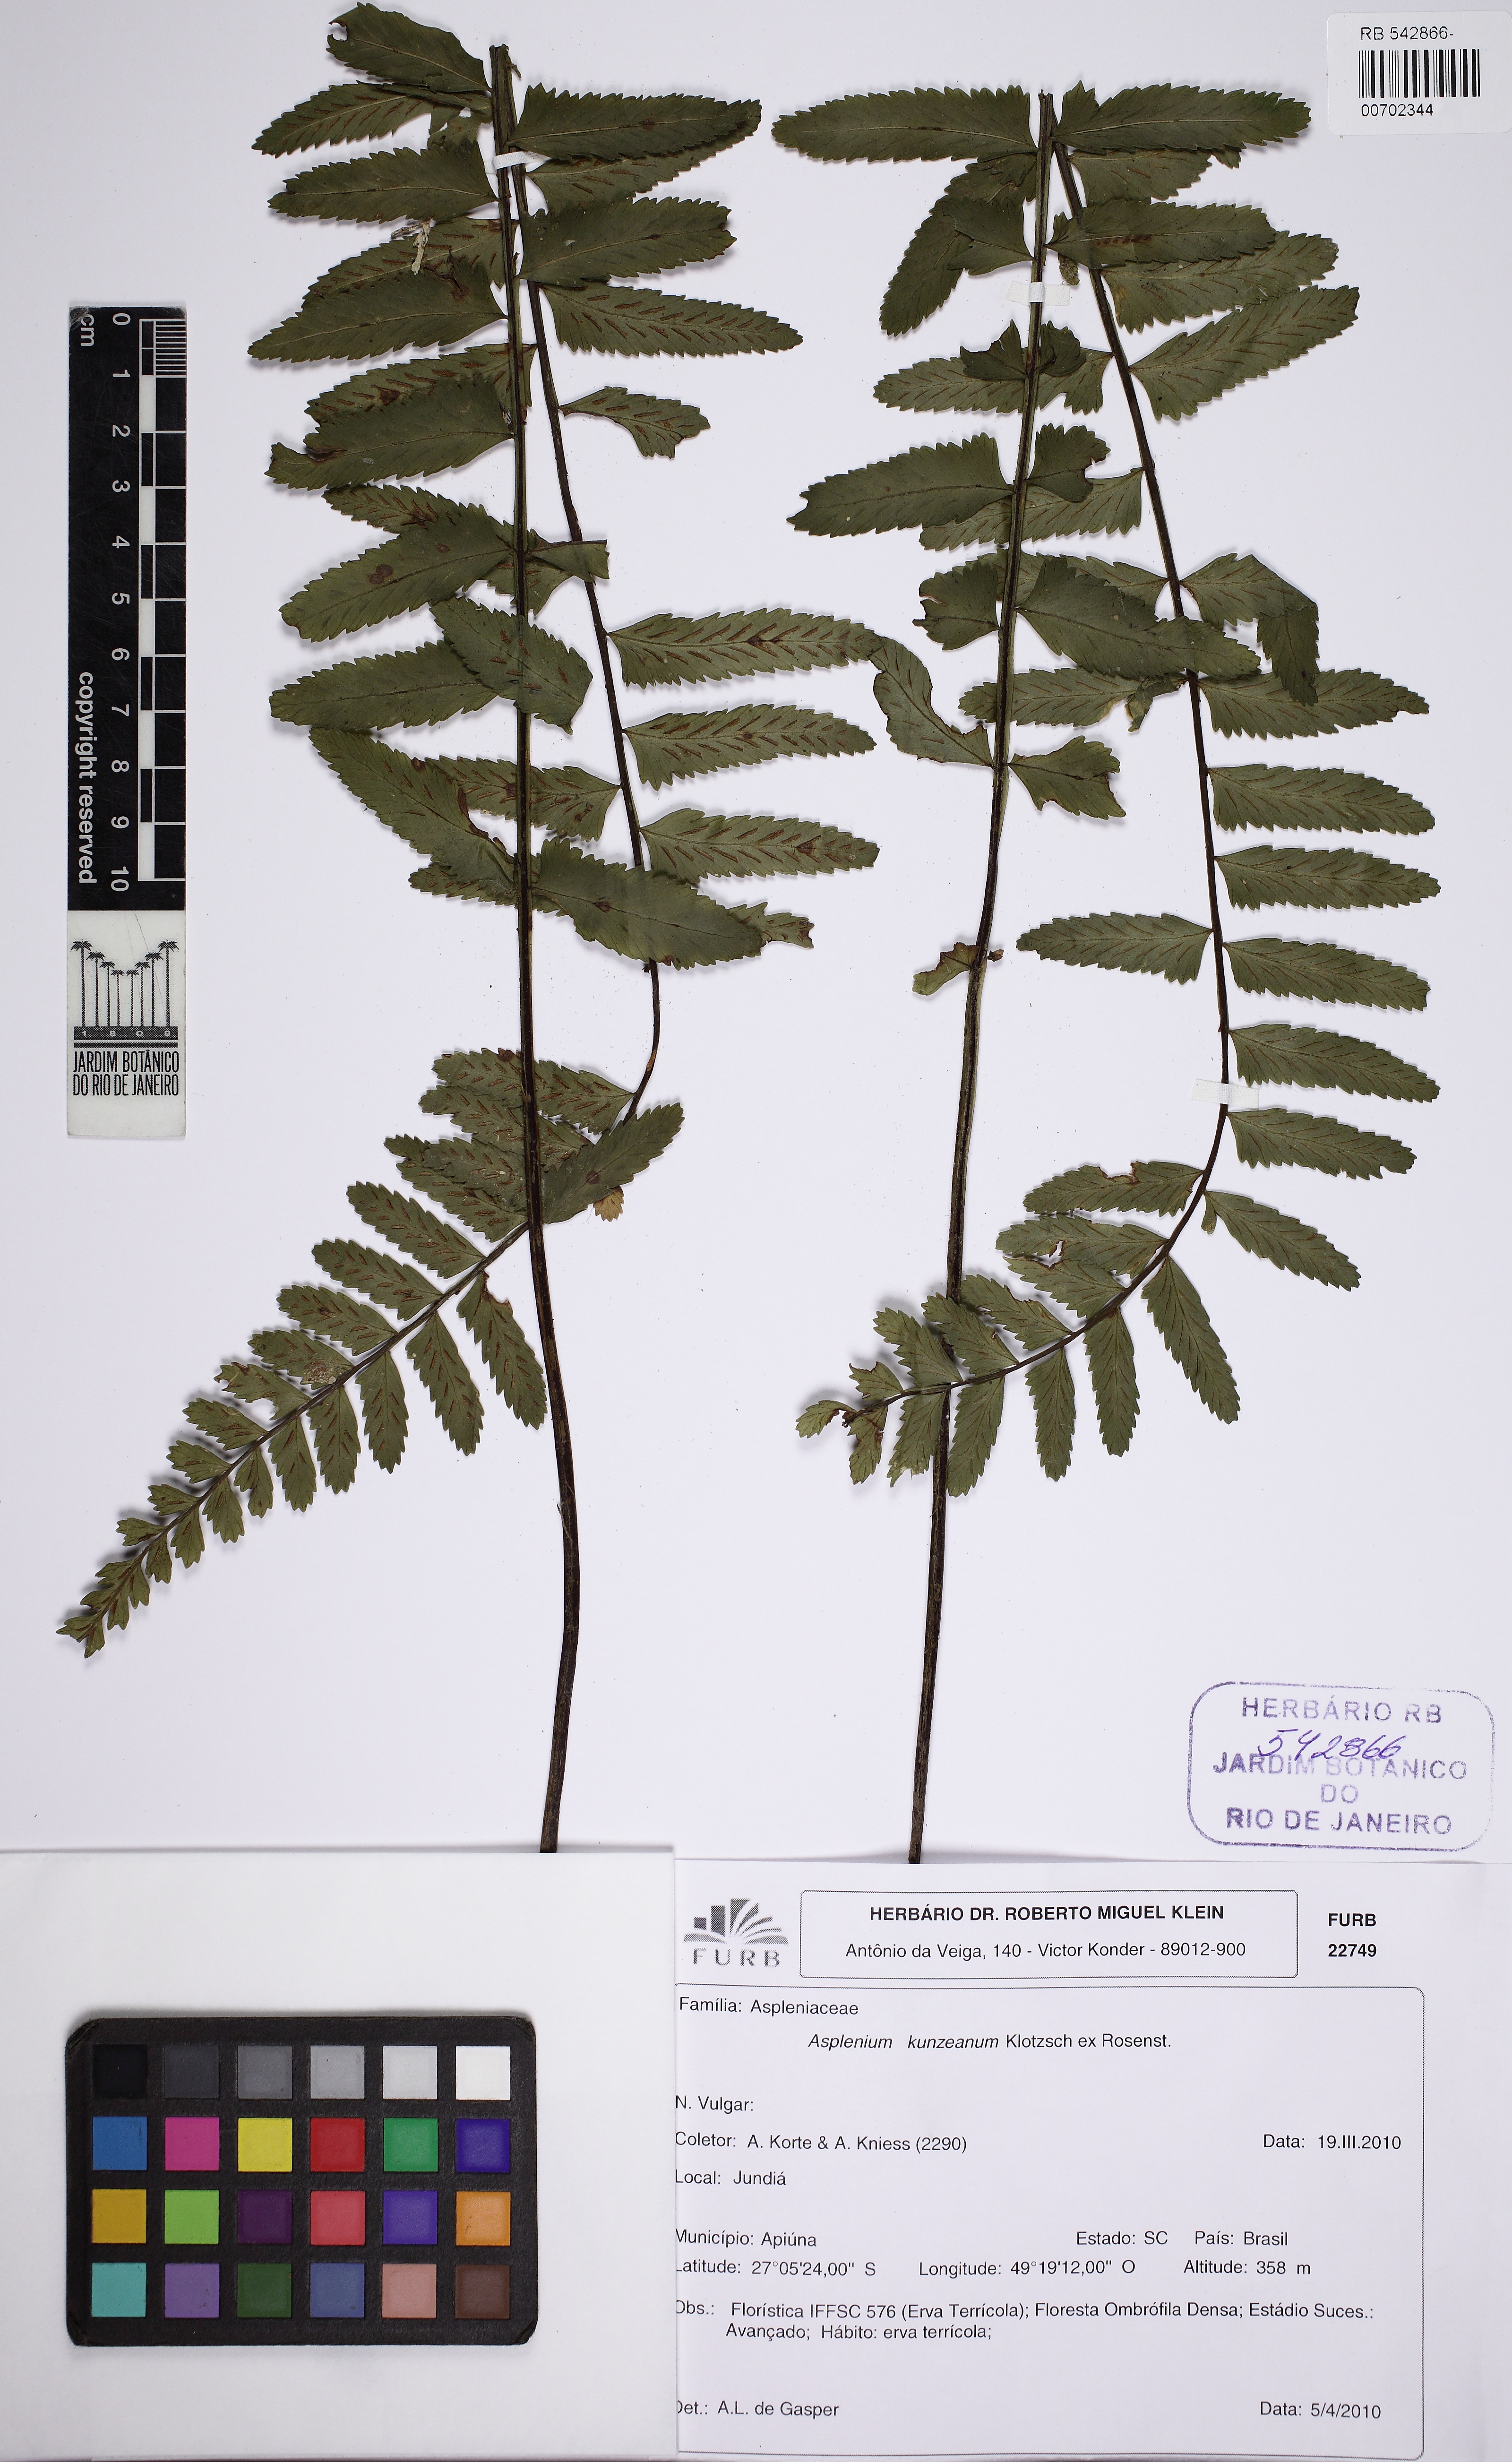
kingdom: Plantae
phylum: Tracheophyta
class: Polypodiopsida
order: Polypodiales
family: Aspleniaceae
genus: Asplenium
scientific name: Asplenium kunzeanum
